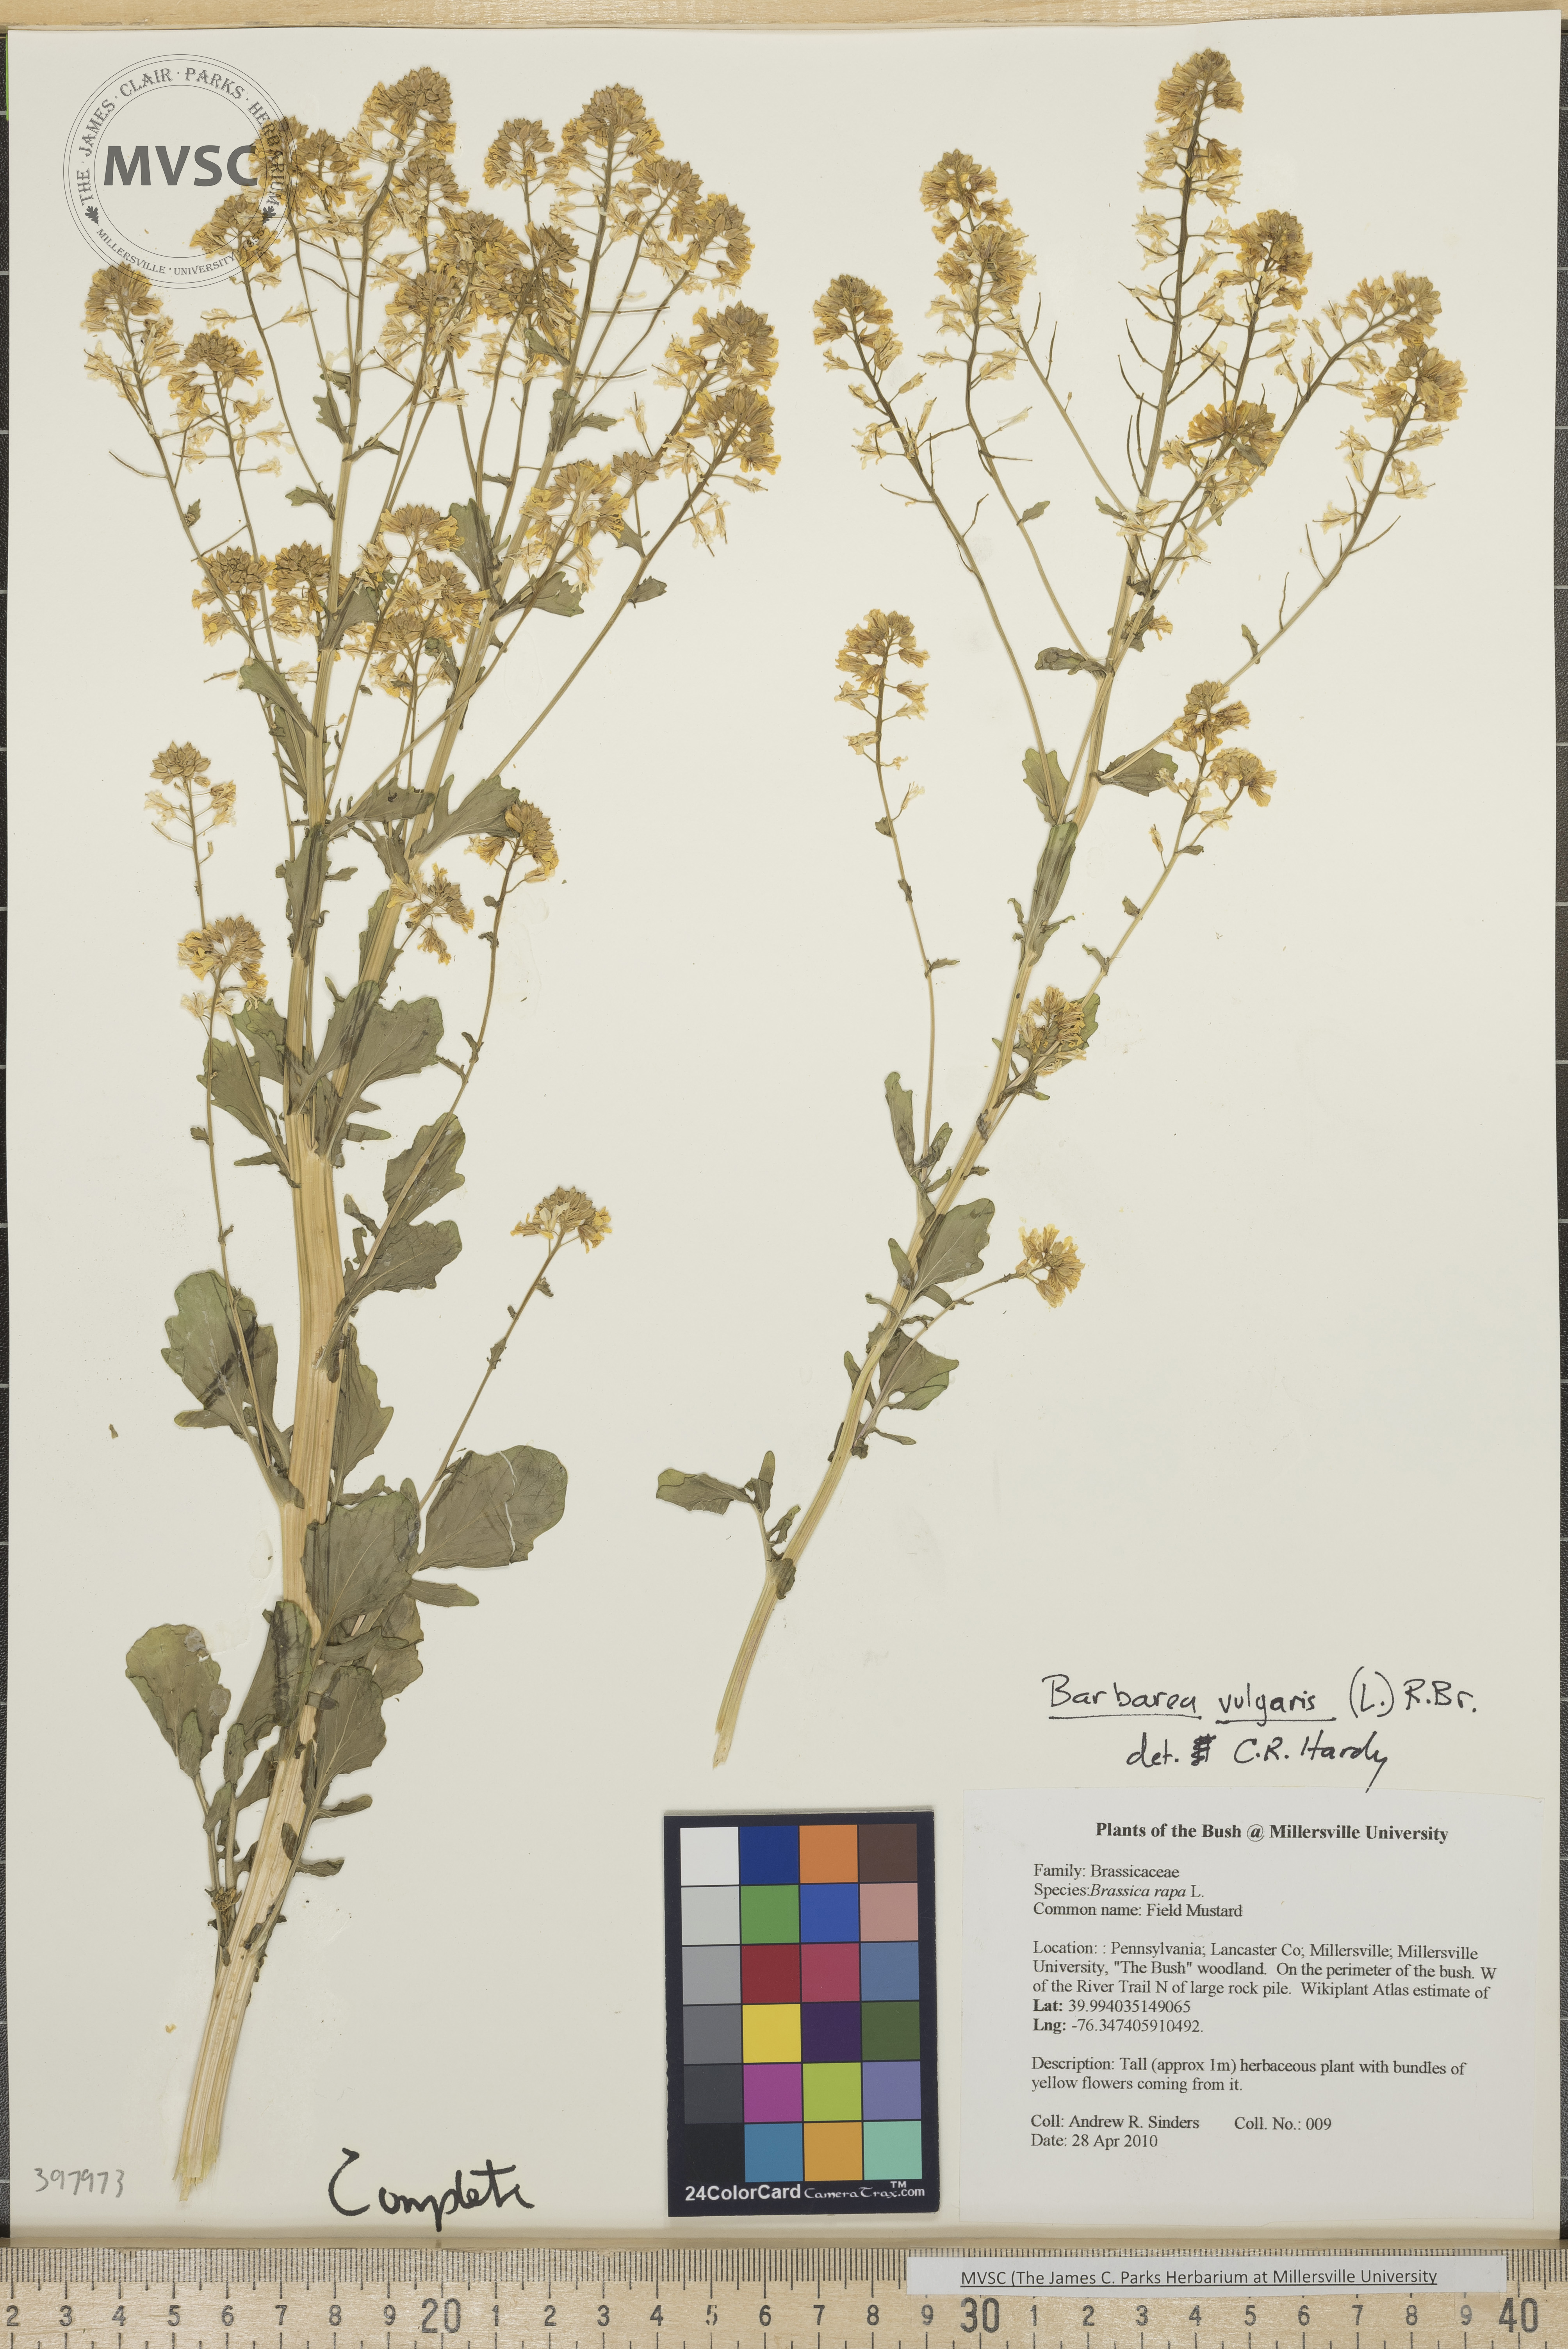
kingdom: Plantae
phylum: Tracheophyta
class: Magnoliopsida
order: Brassicales
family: Brassicaceae
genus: Barbarea
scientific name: Barbarea vulgaris
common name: Wintercress
